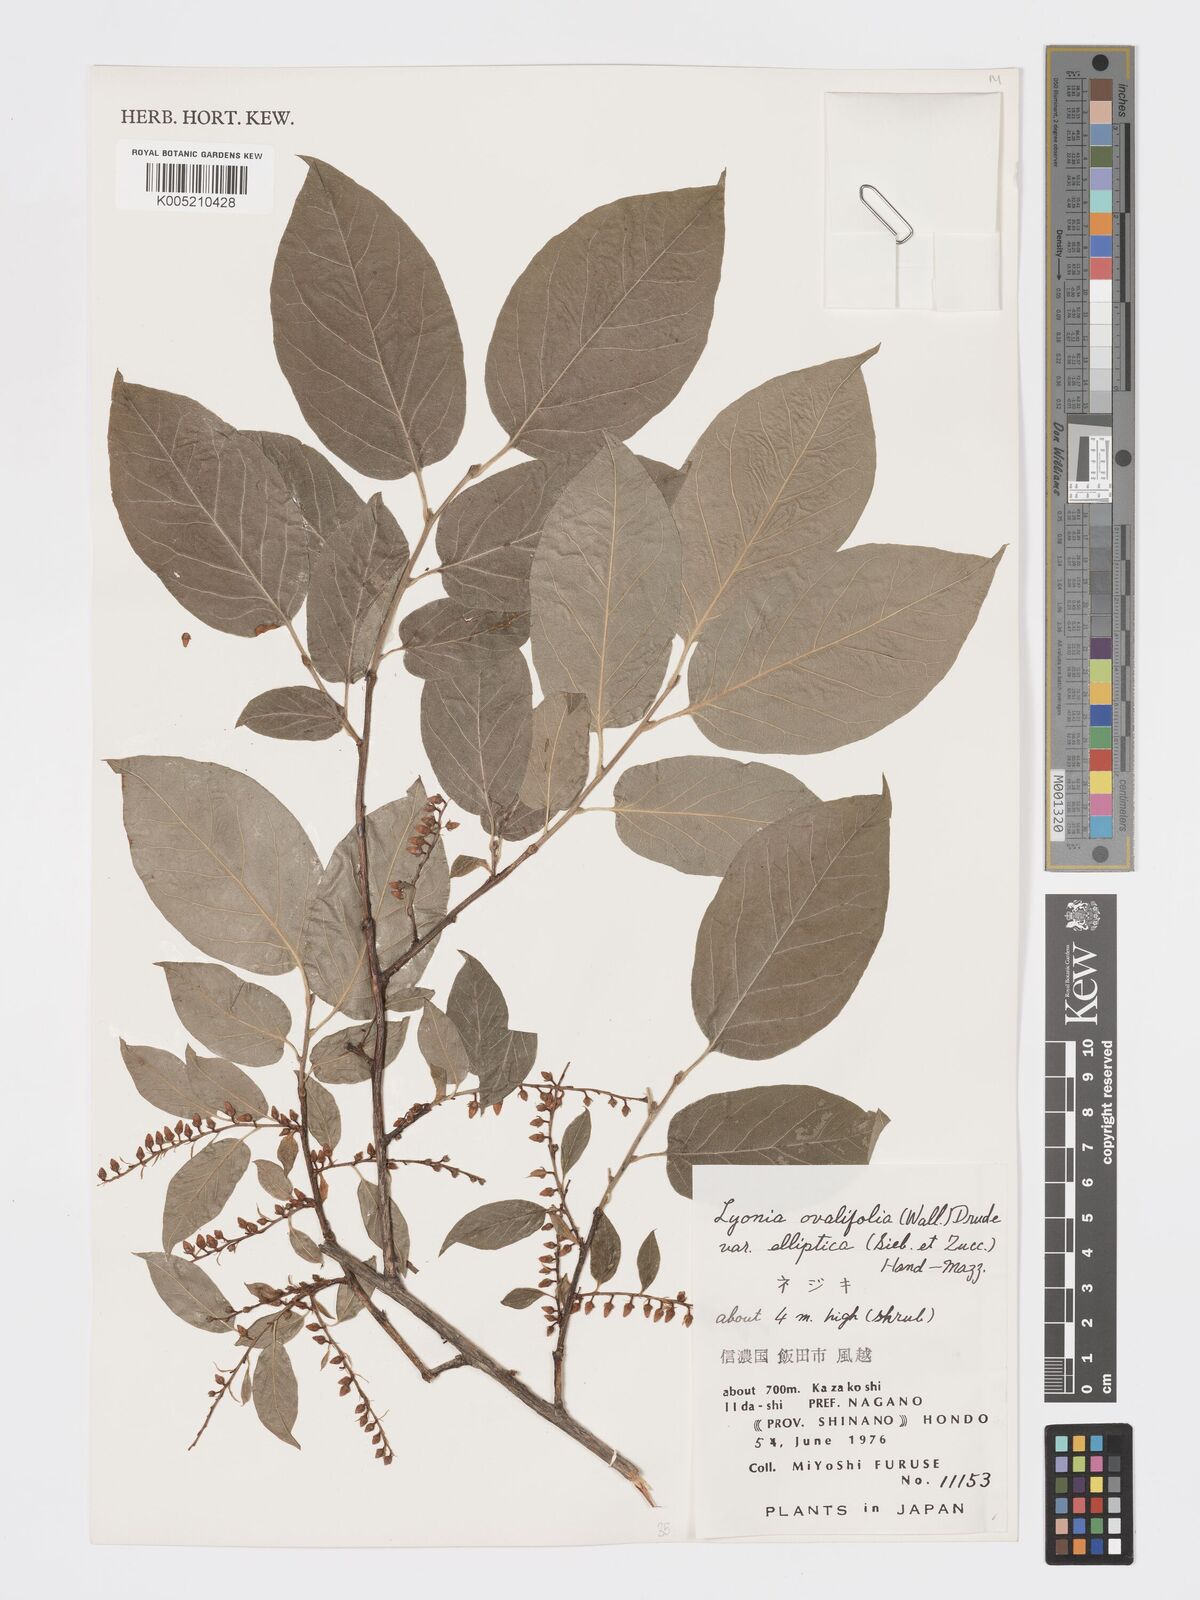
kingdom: Plantae
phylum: Tracheophyta
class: Magnoliopsida
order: Ericales
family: Ericaceae
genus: Lyonia
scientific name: Lyonia elliptica
